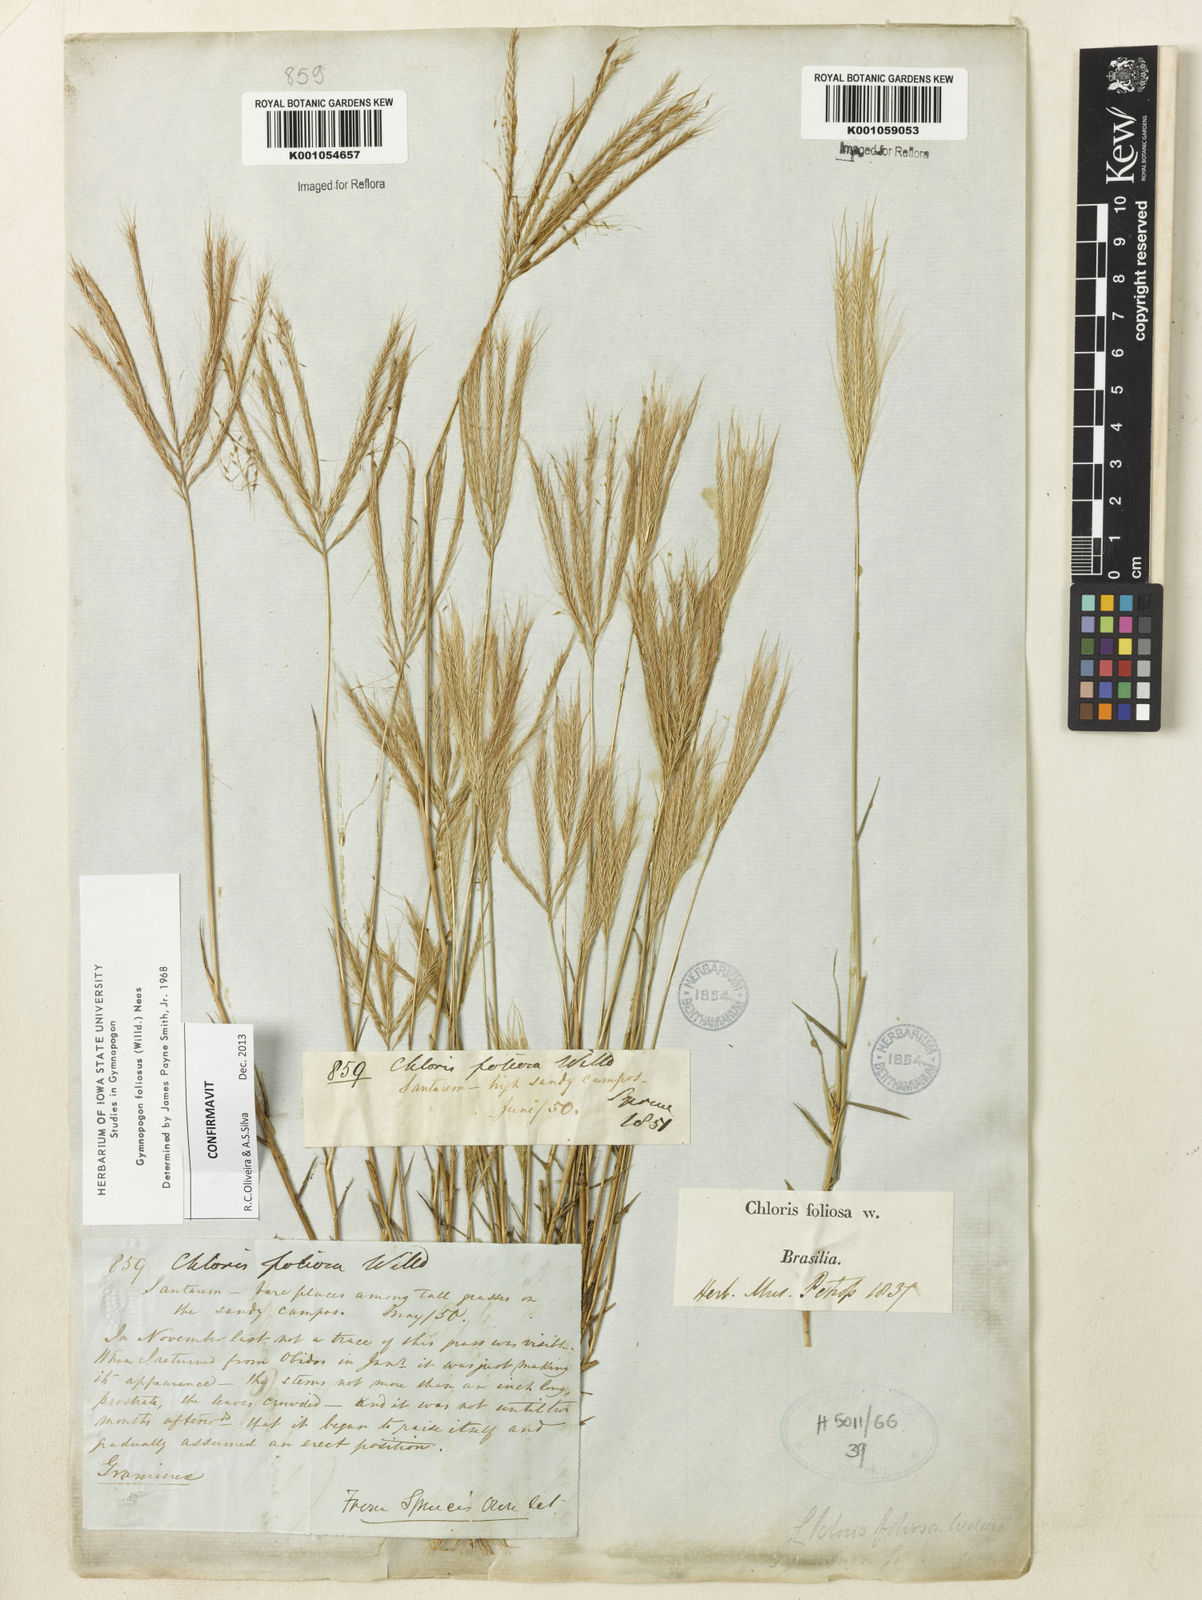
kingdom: Plantae
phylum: Tracheophyta
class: Liliopsida
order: Poales
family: Poaceae
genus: Gymnopogon
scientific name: Gymnopogon foliosus
